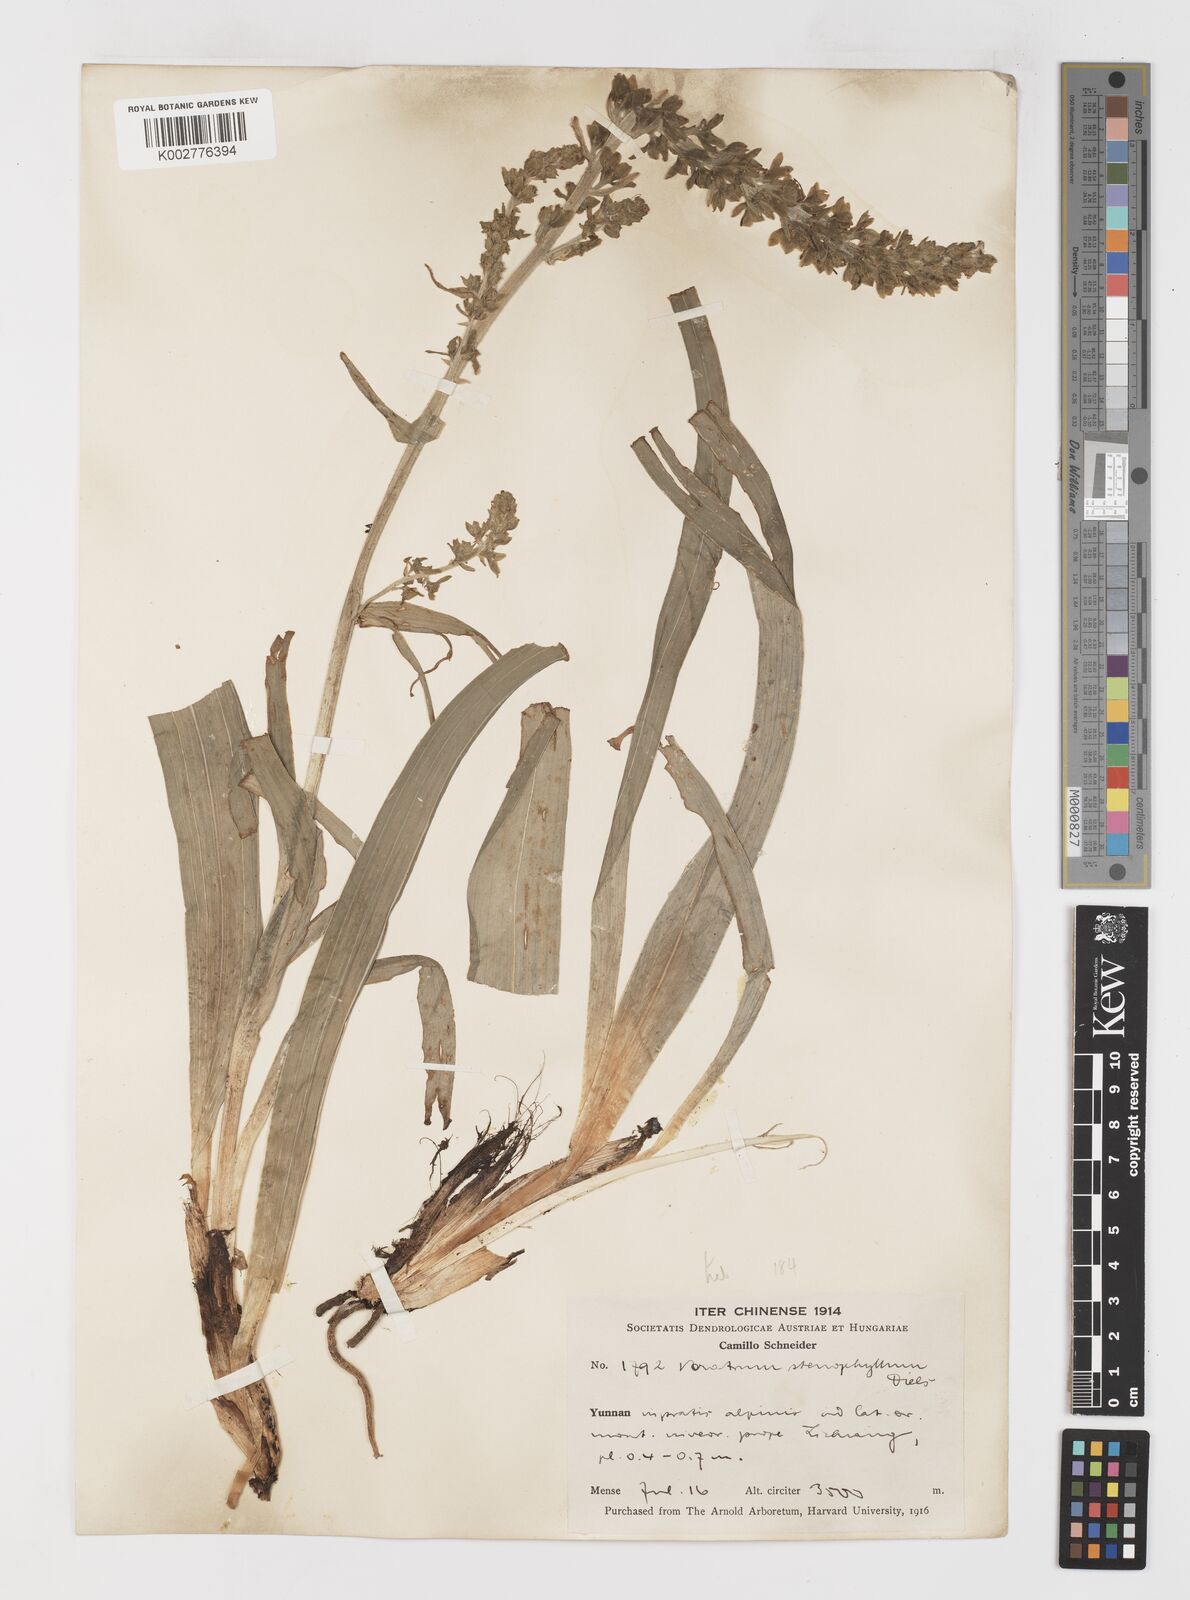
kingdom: Plantae
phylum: Tracheophyta
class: Liliopsida
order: Liliales
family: Melanthiaceae
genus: Veratrum
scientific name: Veratrum shanense
